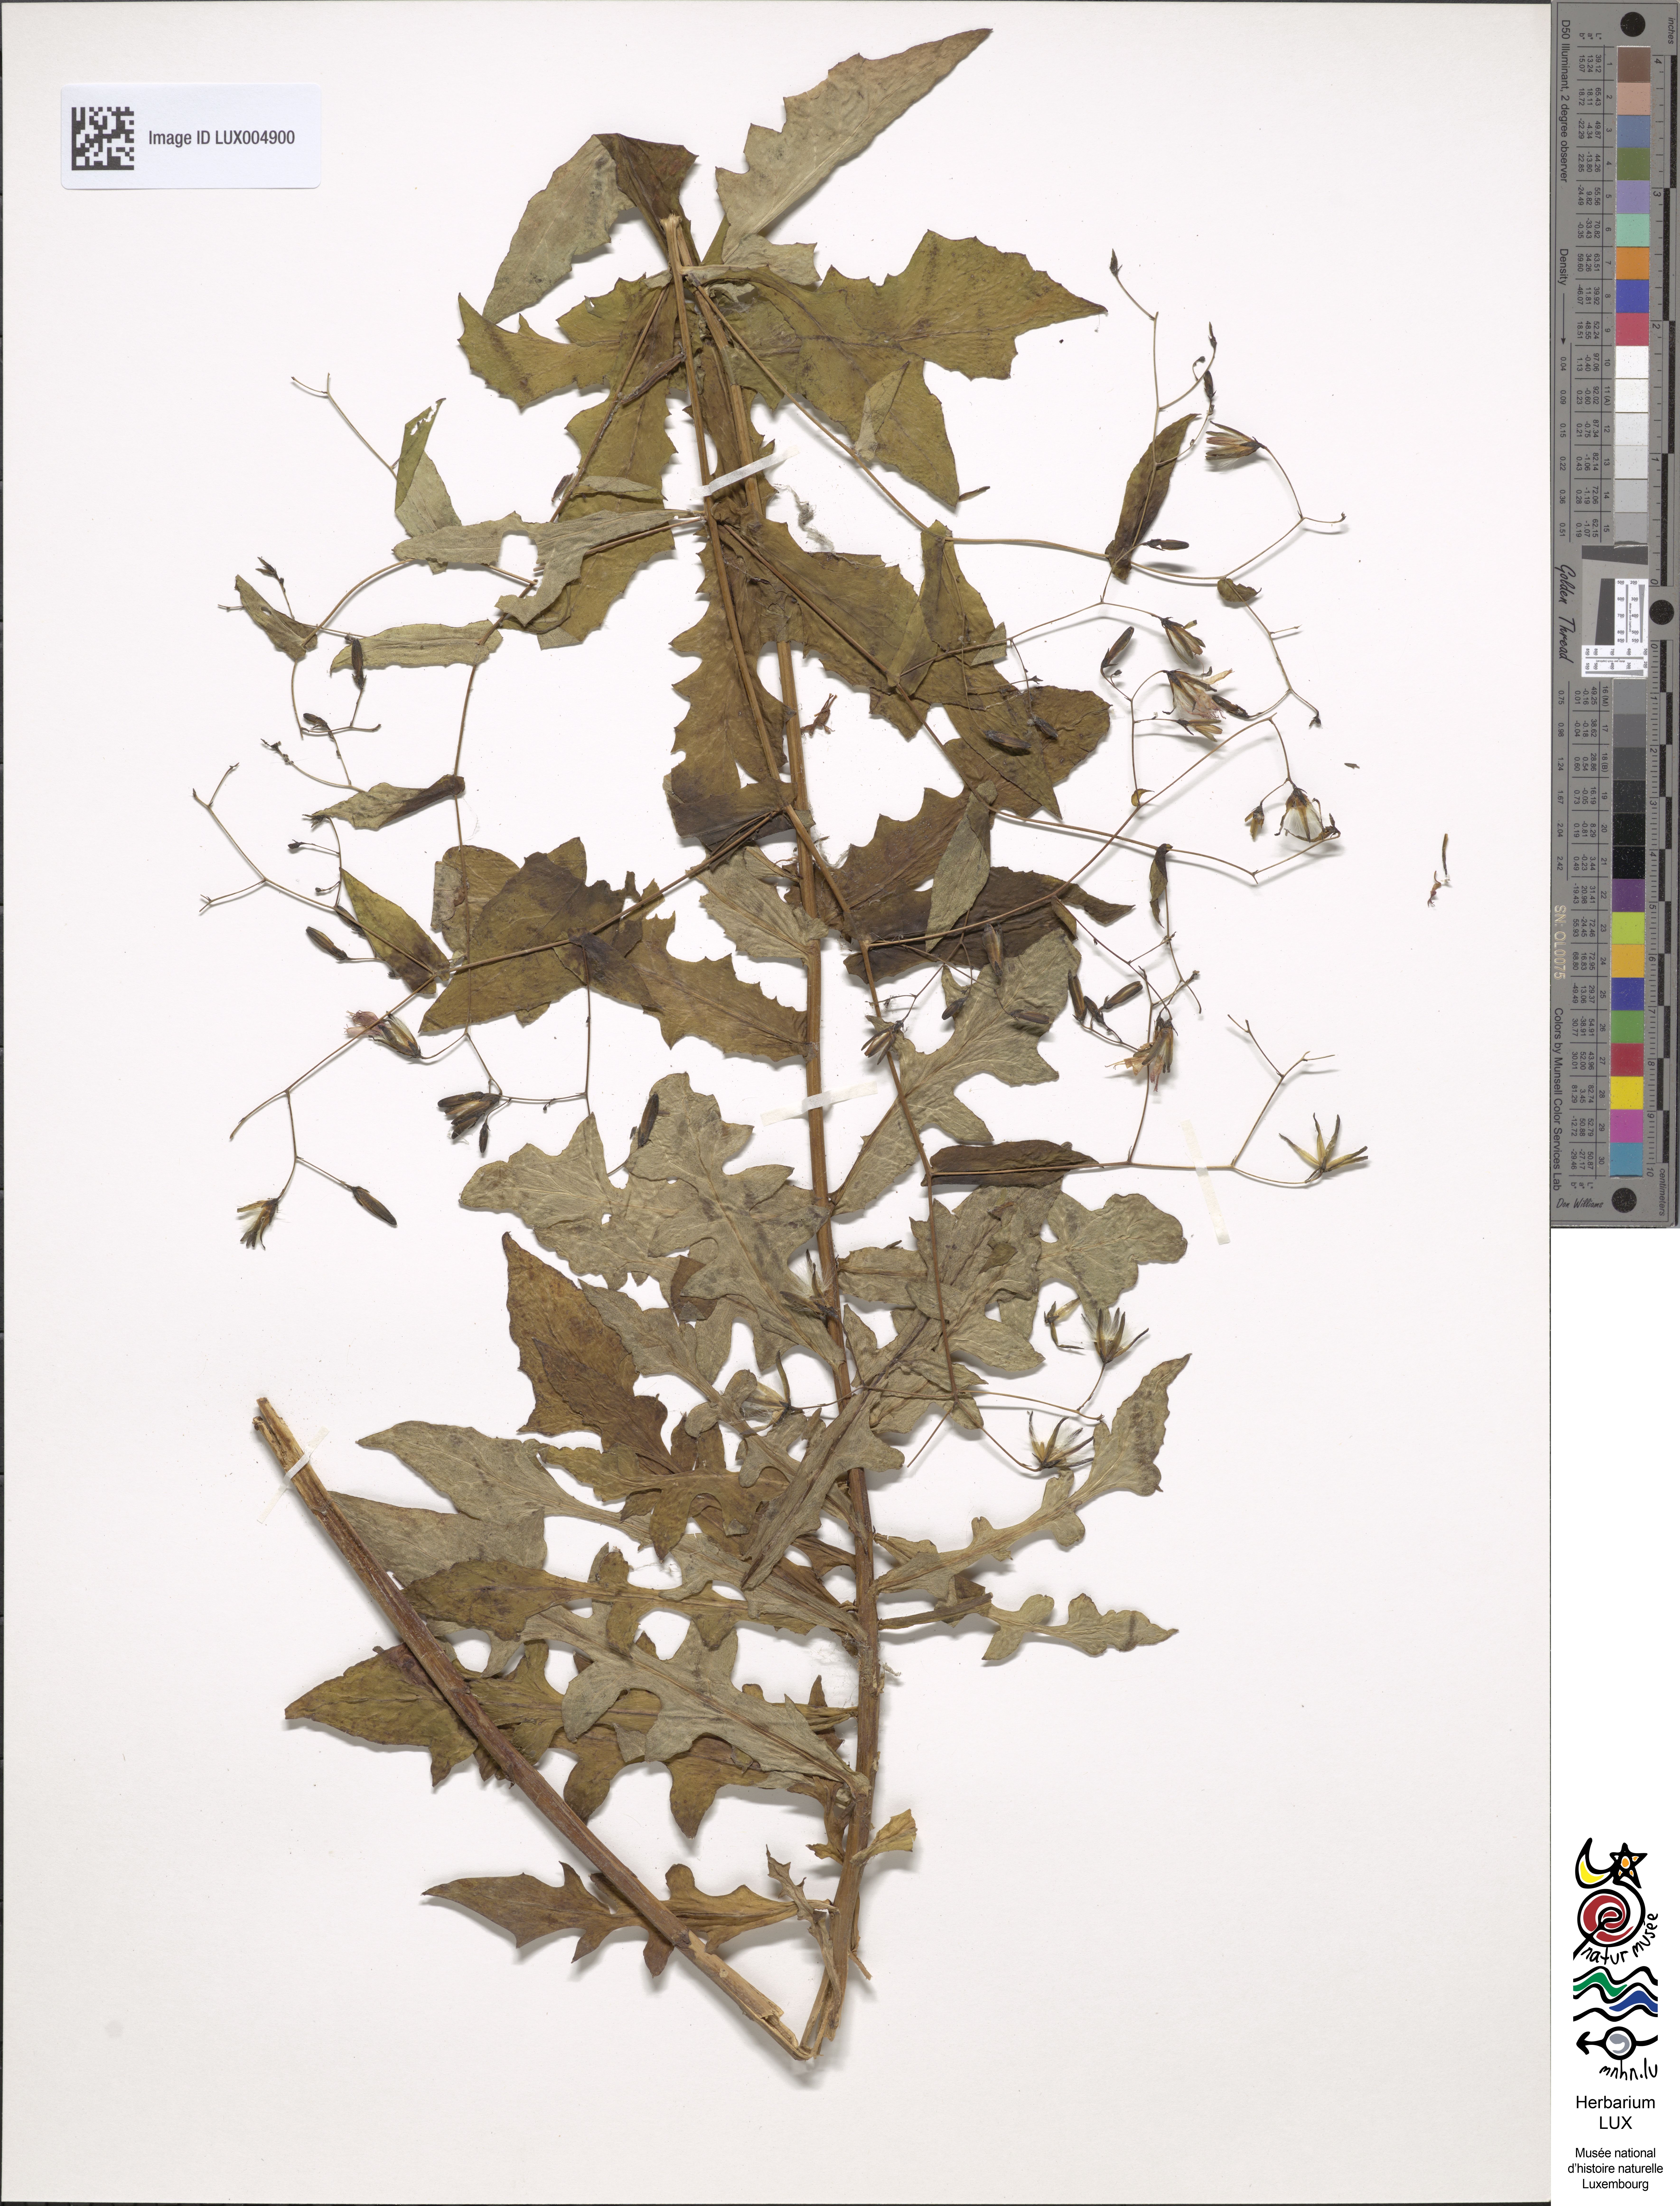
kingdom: Plantae
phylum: Tracheophyta
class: Magnoliopsida
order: Asterales
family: Asteraceae
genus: Prenanthes
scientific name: Prenanthes purpurea
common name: Purple lettuce
